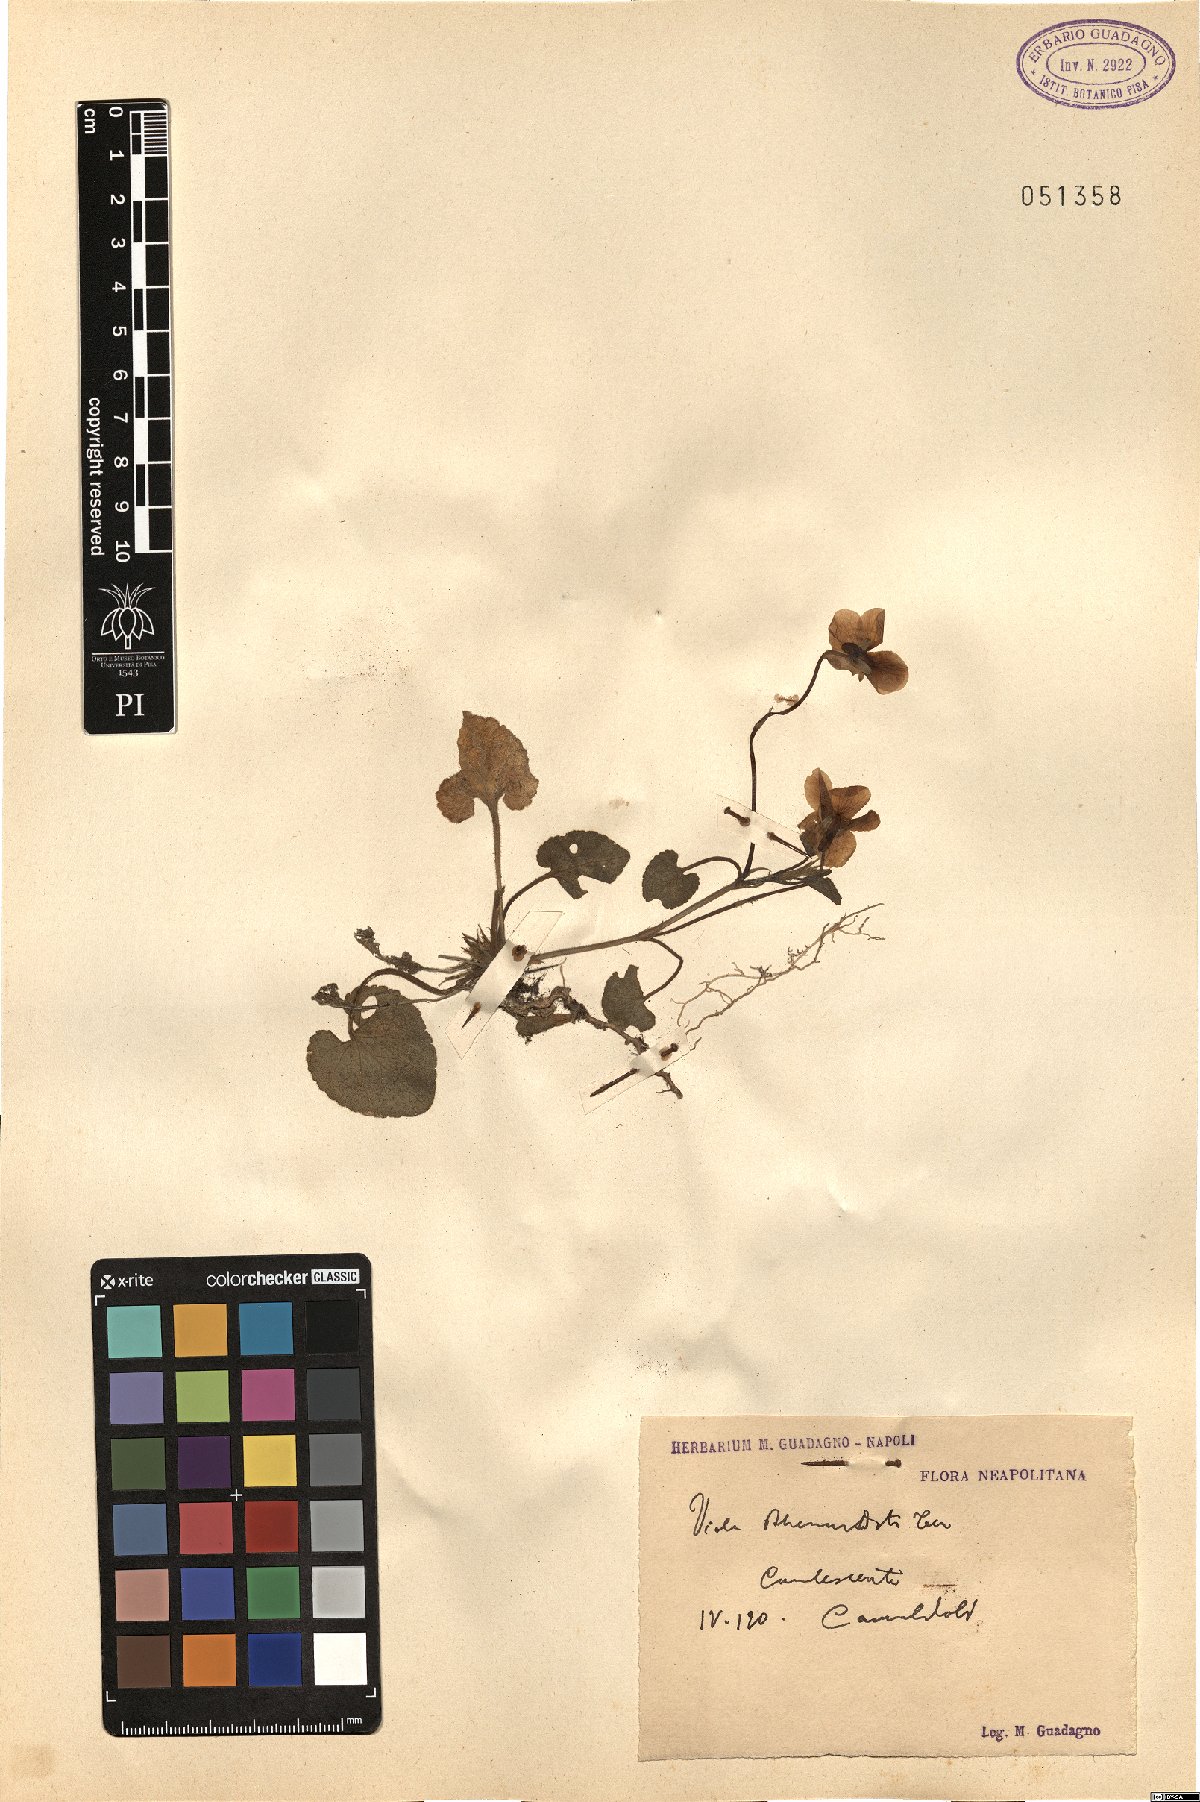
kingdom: Plantae
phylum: Tracheophyta
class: Magnoliopsida
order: Malpighiales
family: Violaceae
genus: Viola
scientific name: Viola alba
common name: White violet
